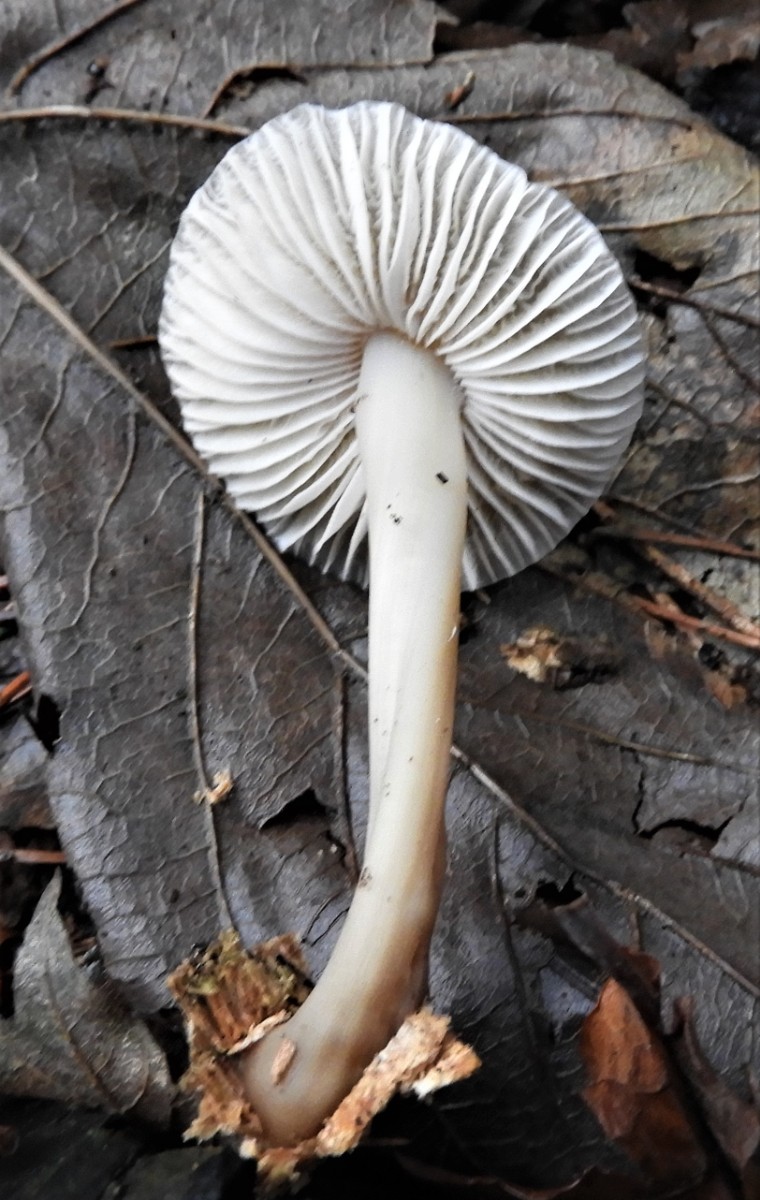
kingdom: Fungi
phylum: Basidiomycota
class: Agaricomycetes
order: Agaricales
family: Mycenaceae
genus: Mycena
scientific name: Mycena galericulata
